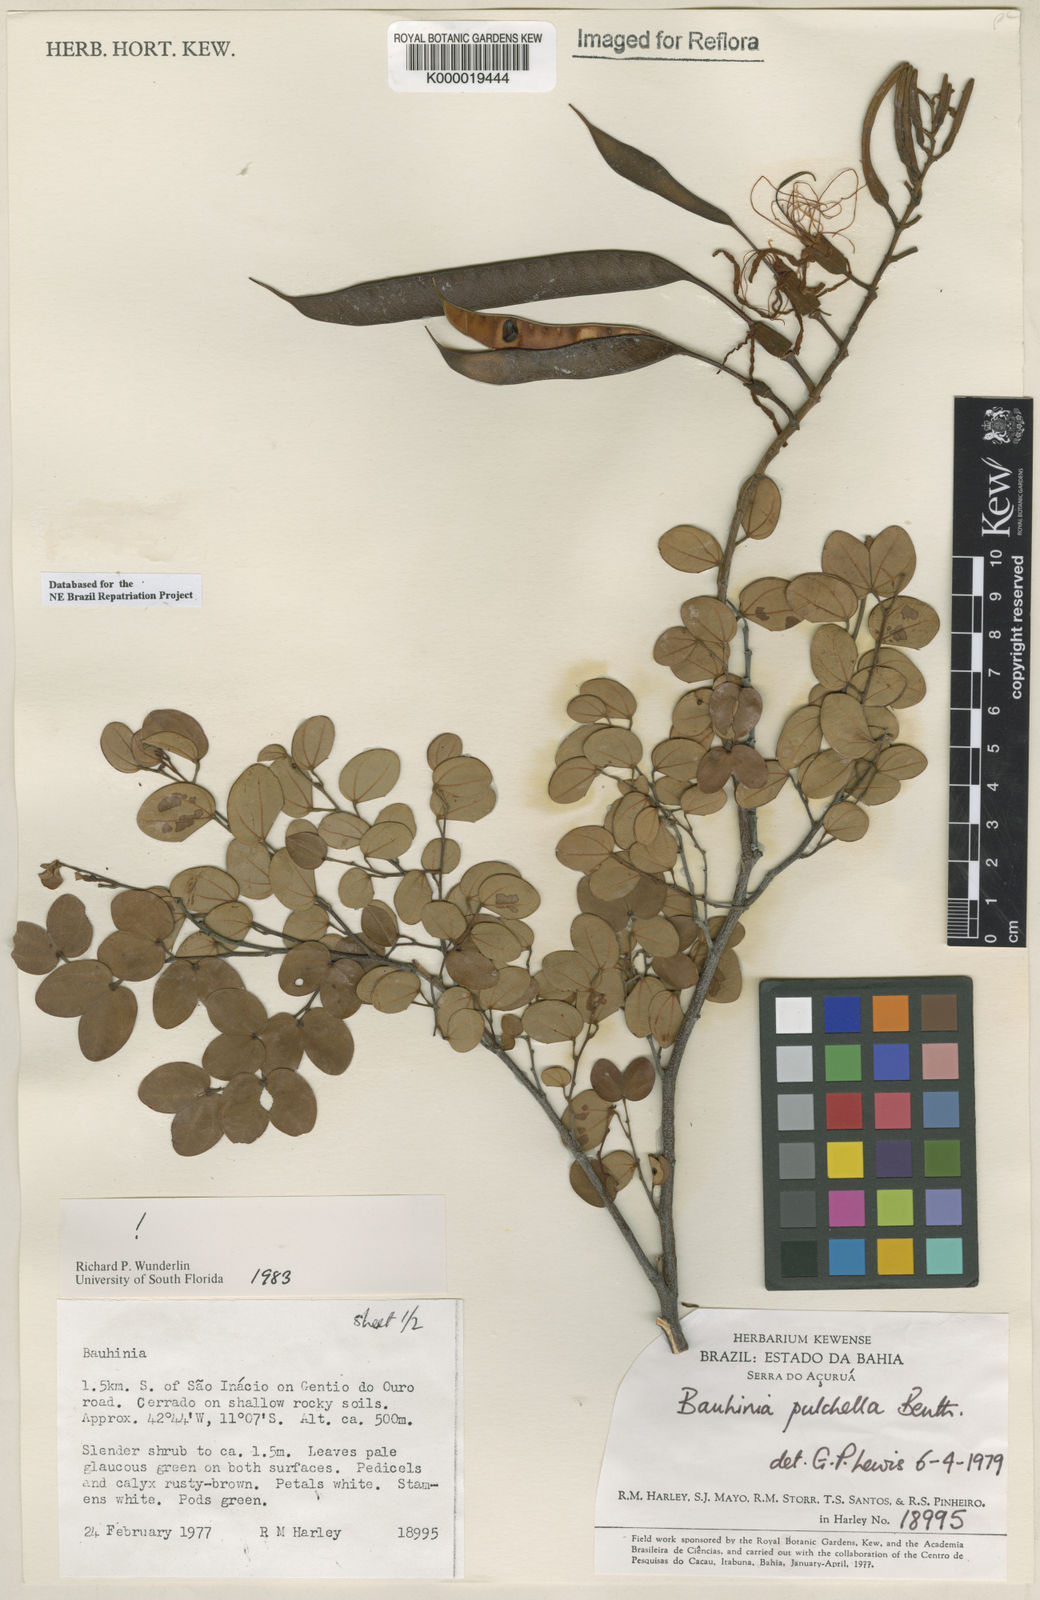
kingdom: Plantae
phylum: Tracheophyta
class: Magnoliopsida
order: Fabales
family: Fabaceae
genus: Bauhinia
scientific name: Bauhinia pulchella
